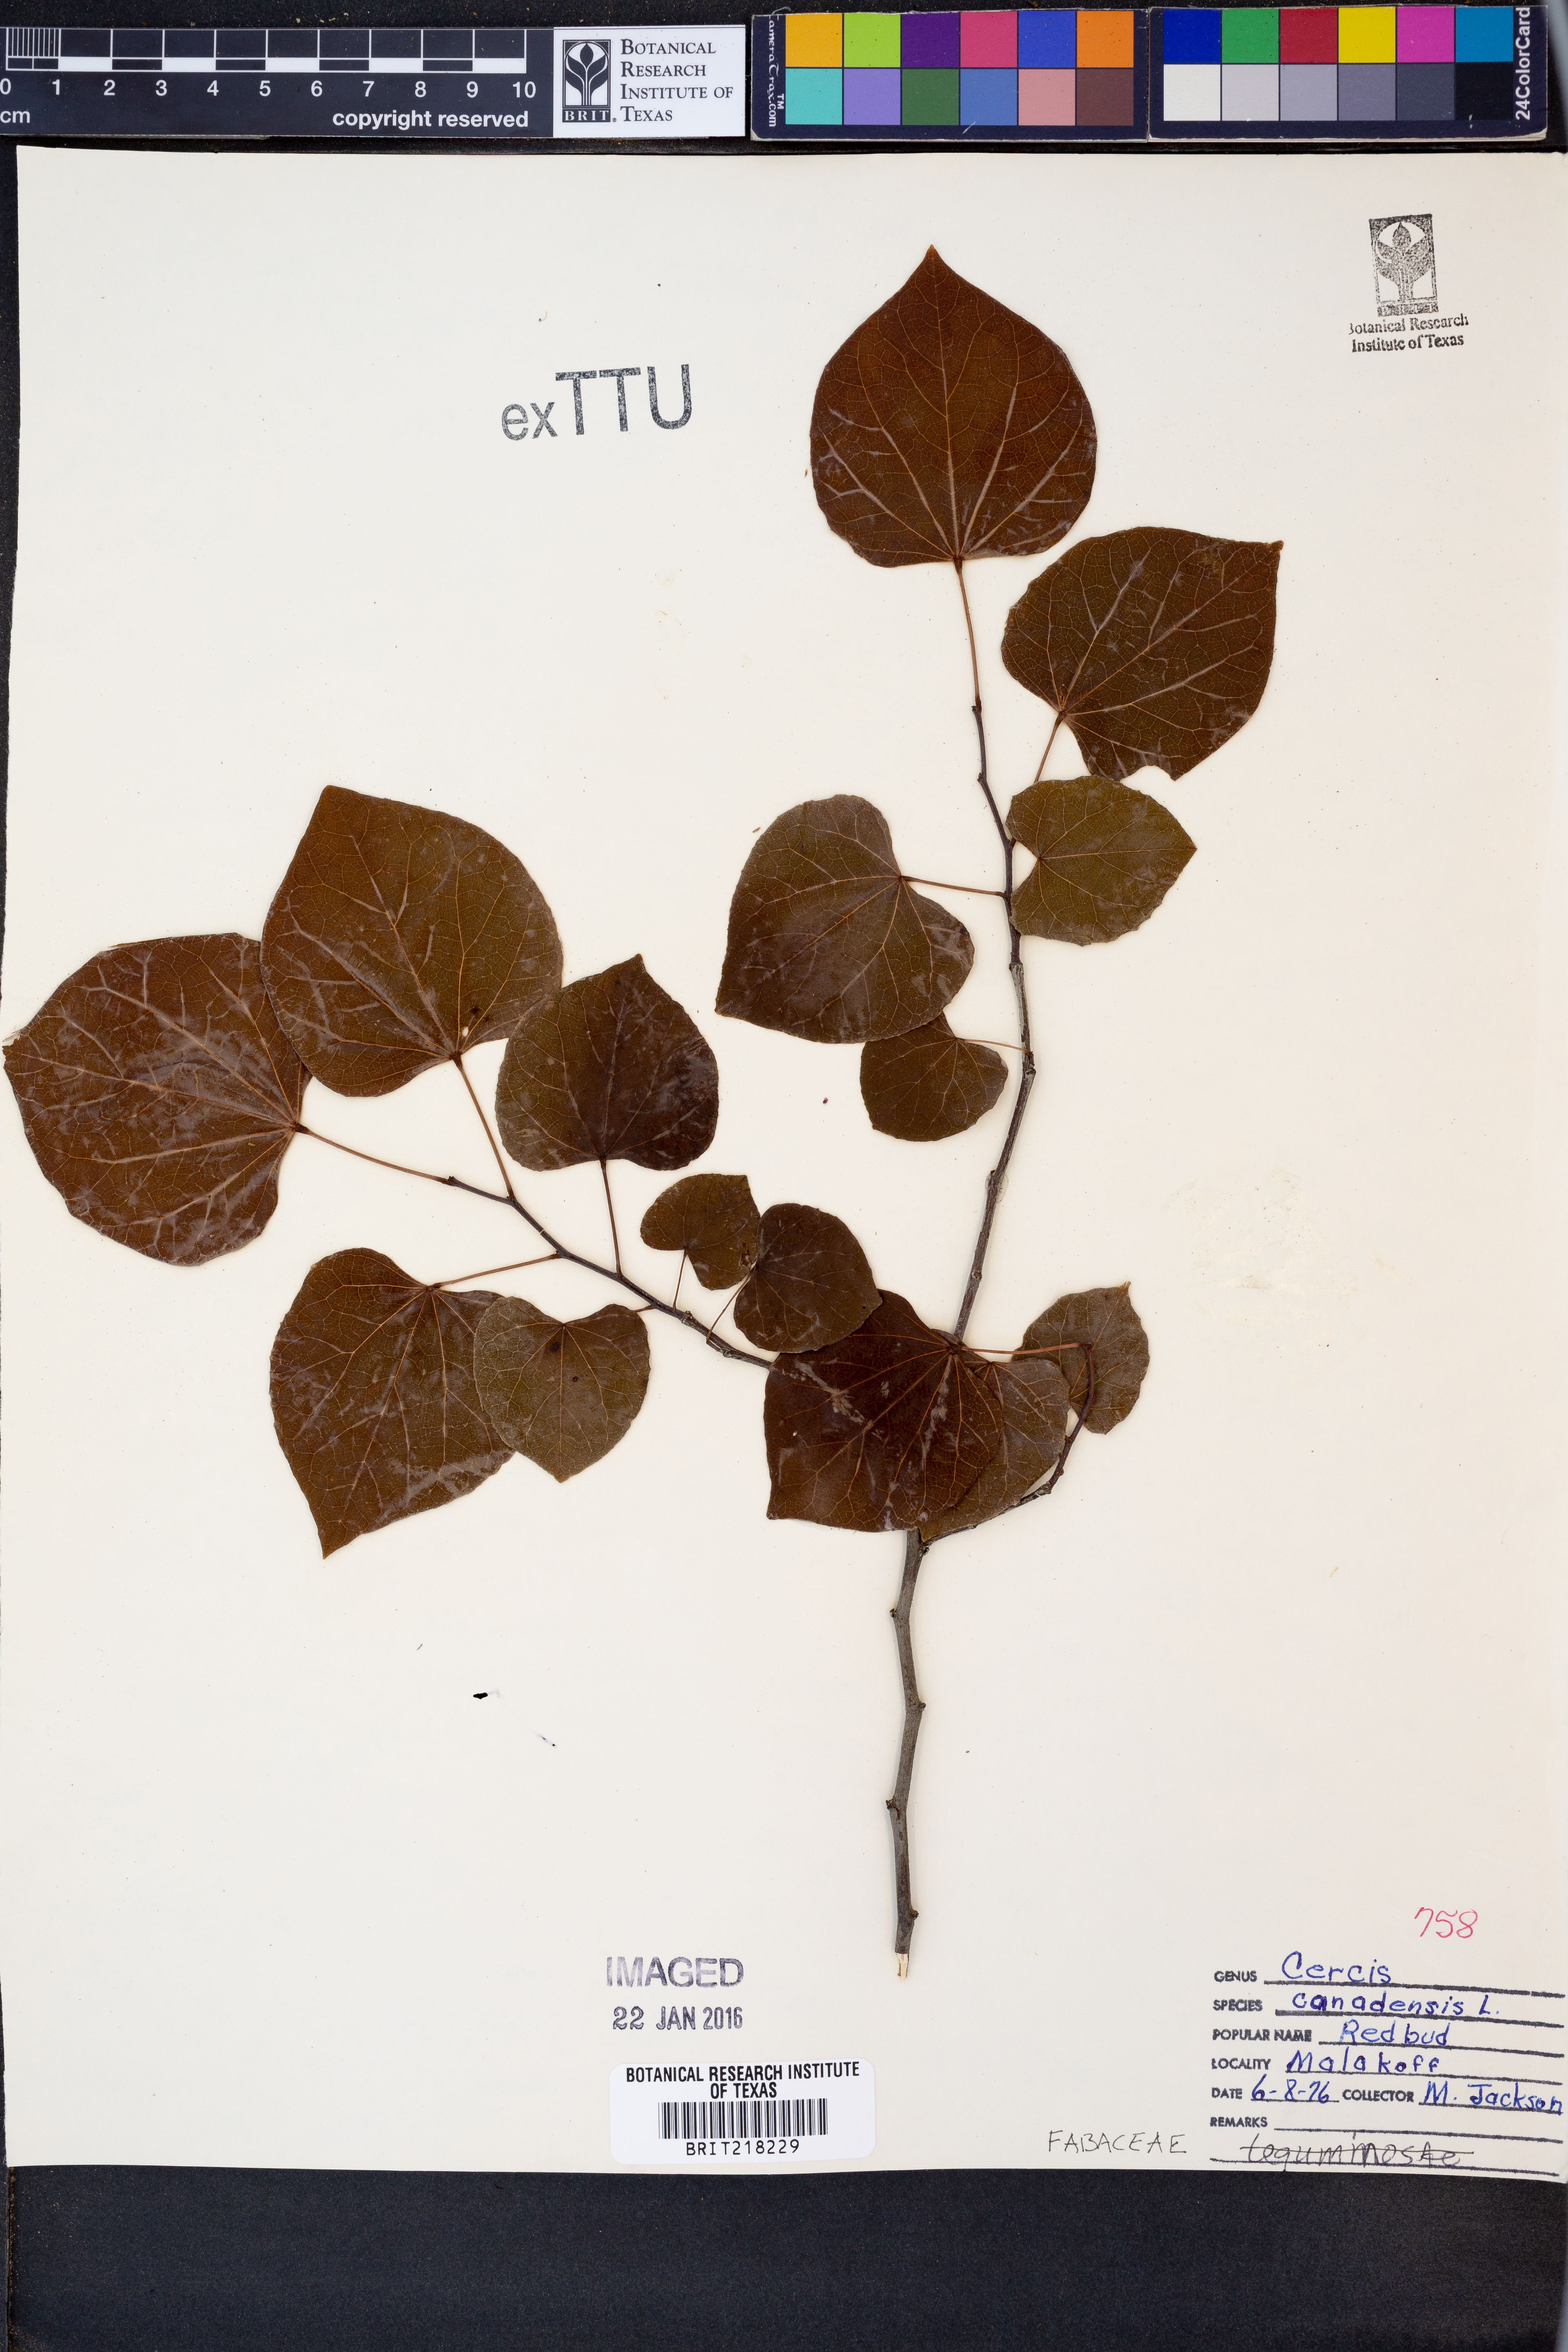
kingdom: Plantae
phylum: Tracheophyta
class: Magnoliopsida
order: Fabales
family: Fabaceae
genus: Cercis
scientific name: Cercis canadensis
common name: Eastern redbud
